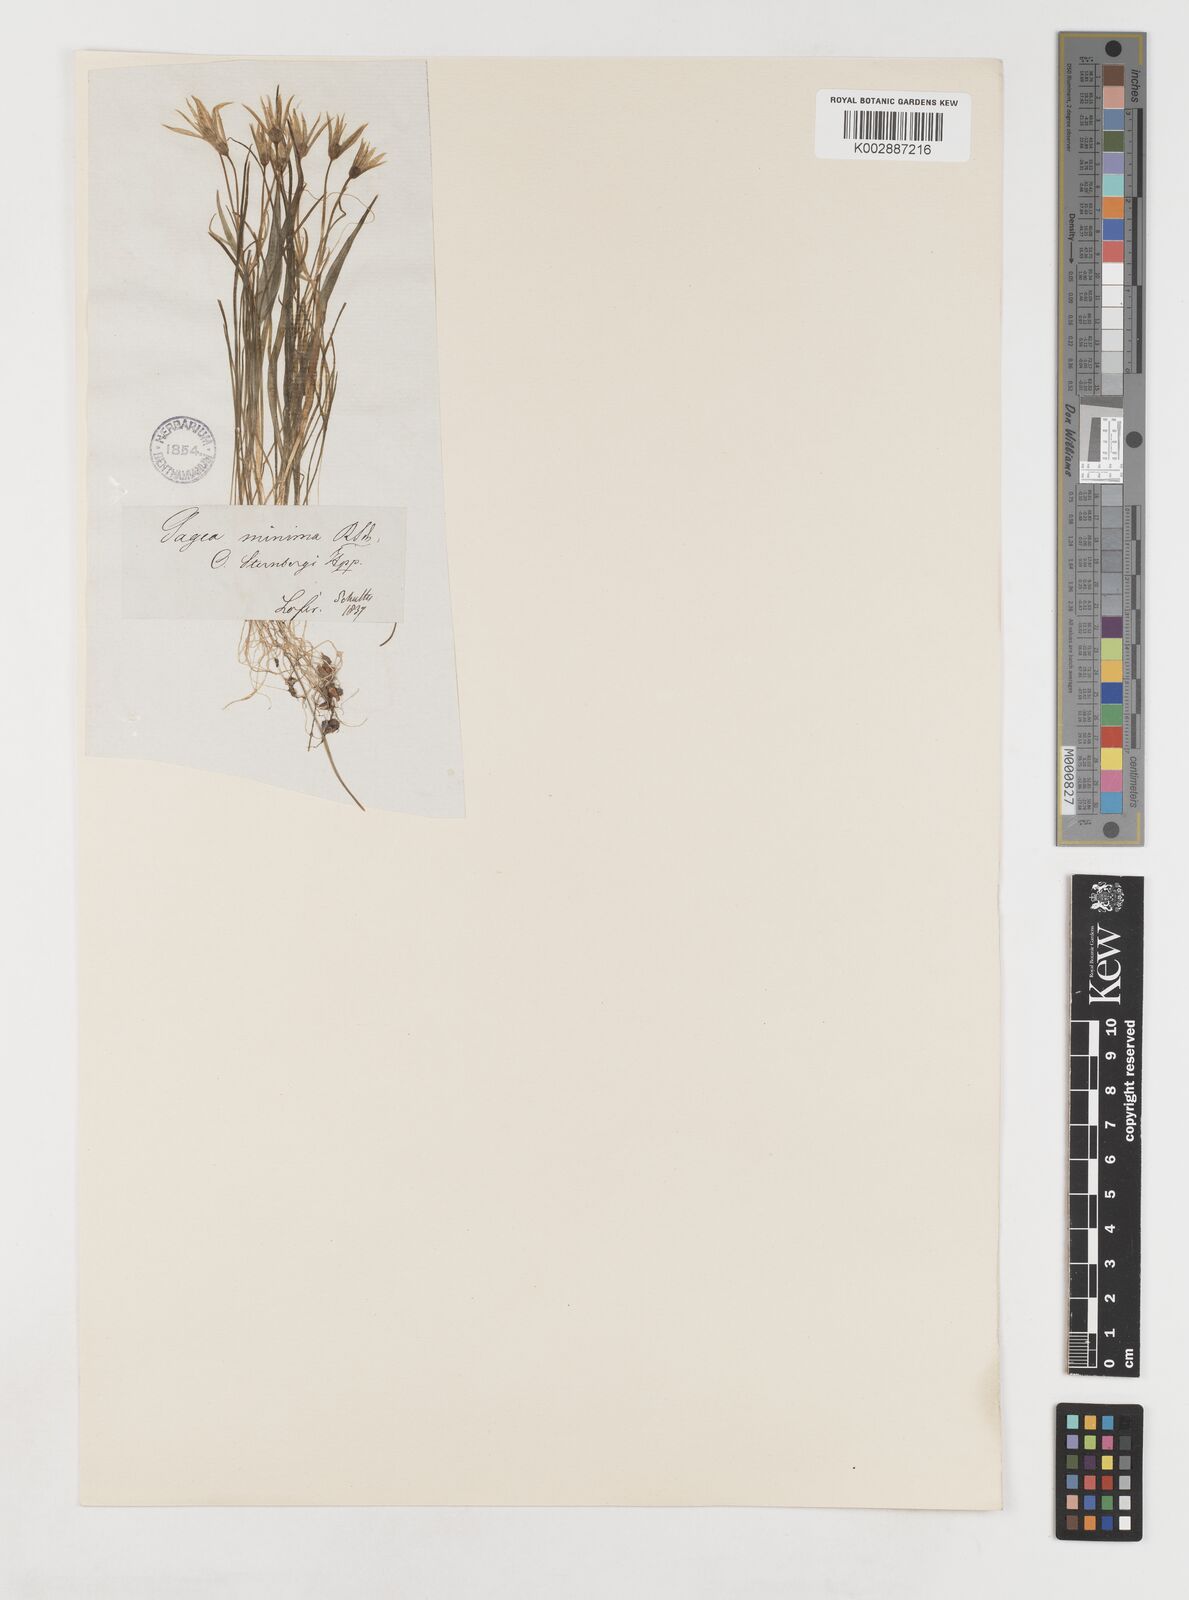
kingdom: Plantae
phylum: Tracheophyta
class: Liliopsida
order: Liliales
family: Liliaceae
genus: Gagea
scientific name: Gagea minima
